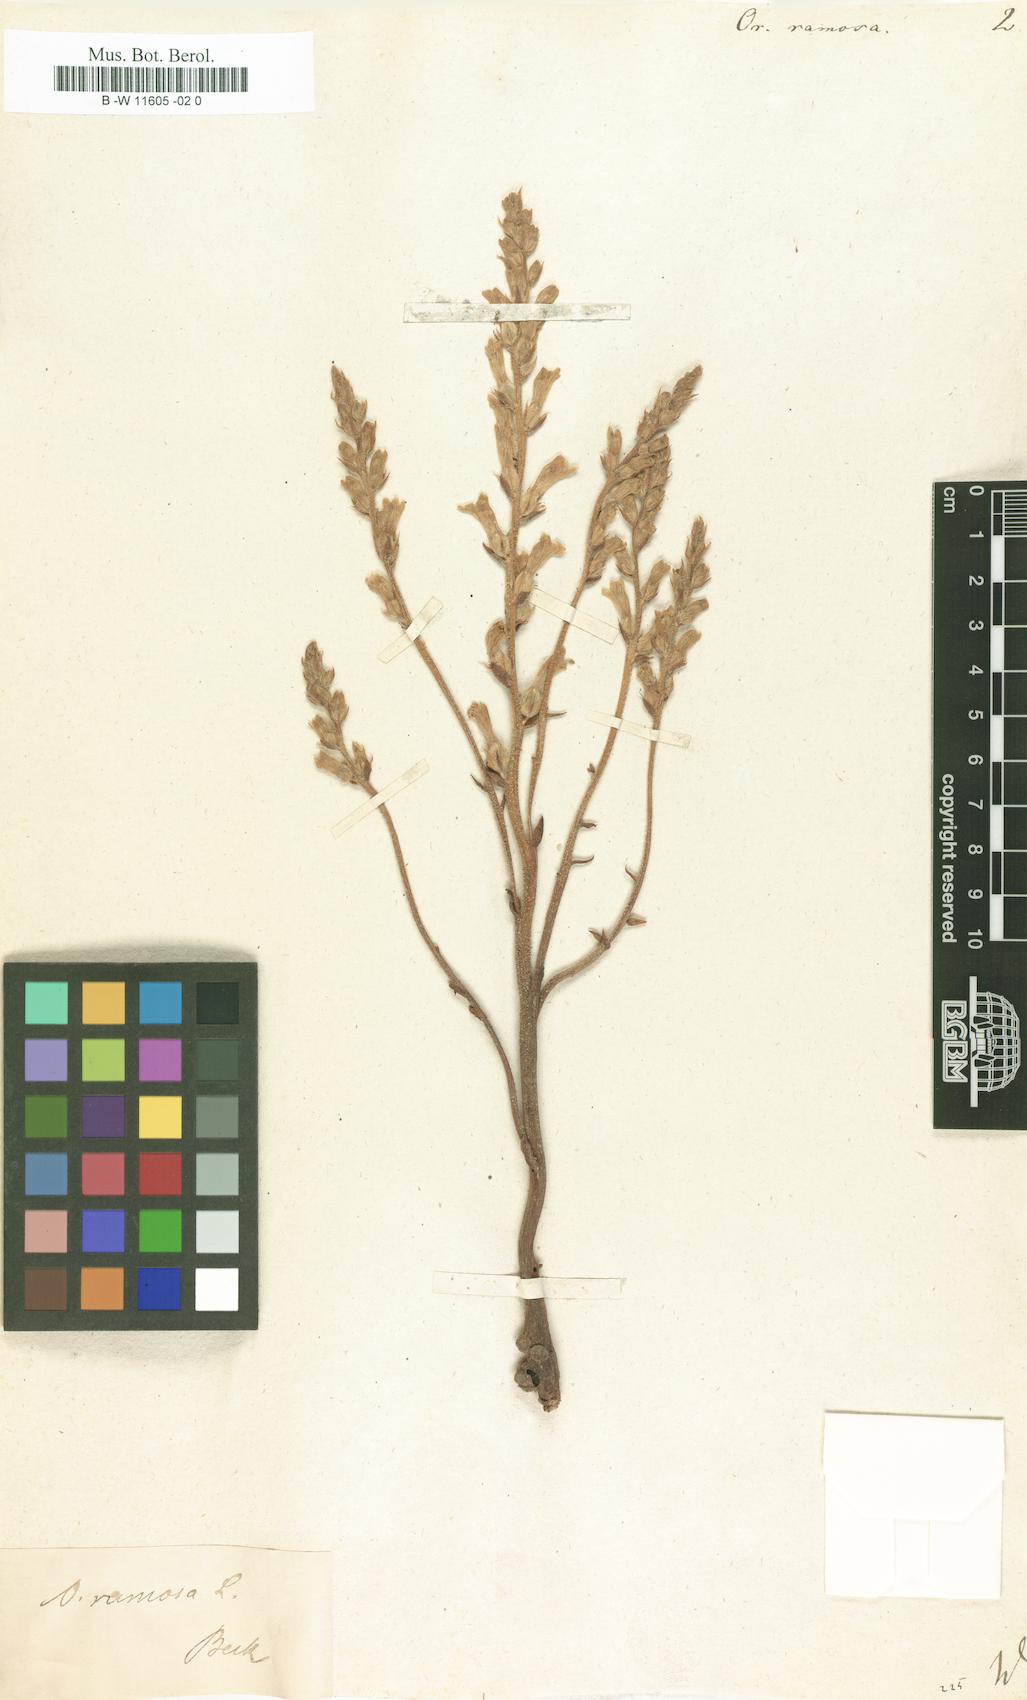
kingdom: Plantae
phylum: Tracheophyta
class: Magnoliopsida
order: Lamiales
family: Orobanchaceae
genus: Phelipanche
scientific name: Phelipanche ramosa
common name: Branched broomrape
